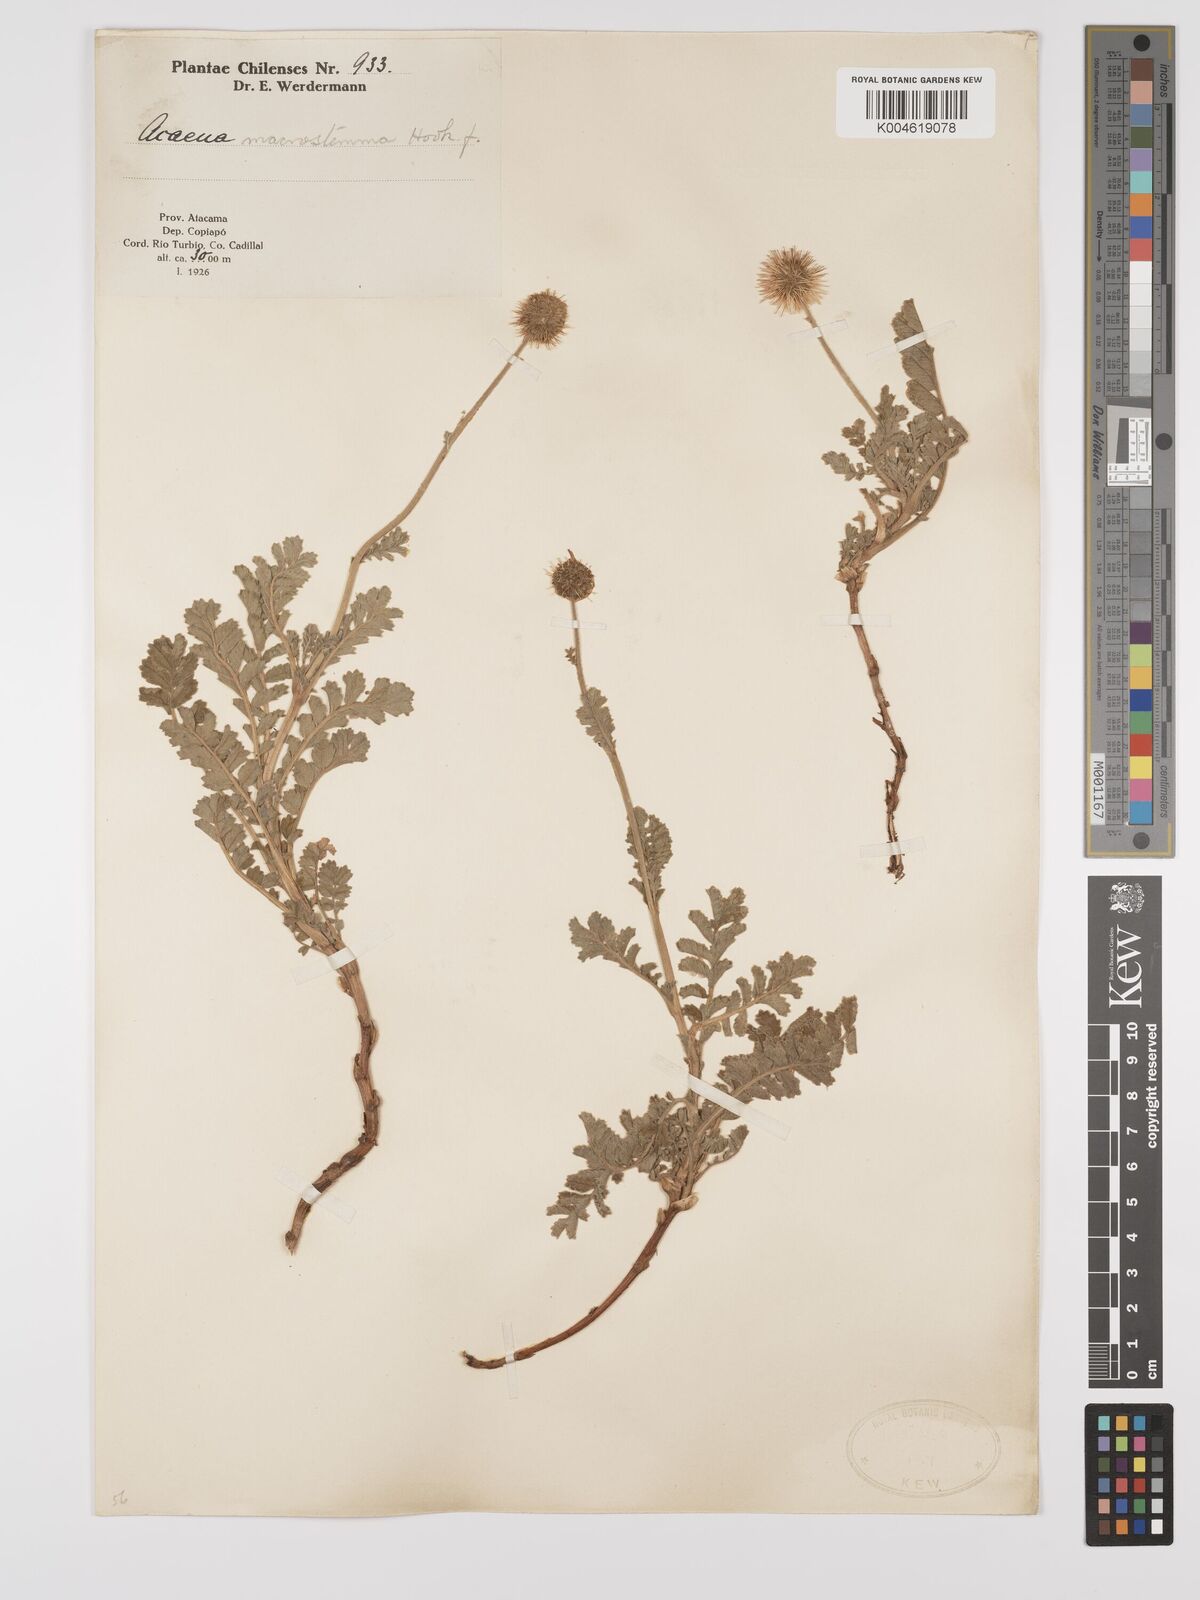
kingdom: Plantae
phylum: Tracheophyta
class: Magnoliopsida
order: Rosales
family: Rosaceae
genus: Acaena
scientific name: Acaena magellanica
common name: New zealand burr
